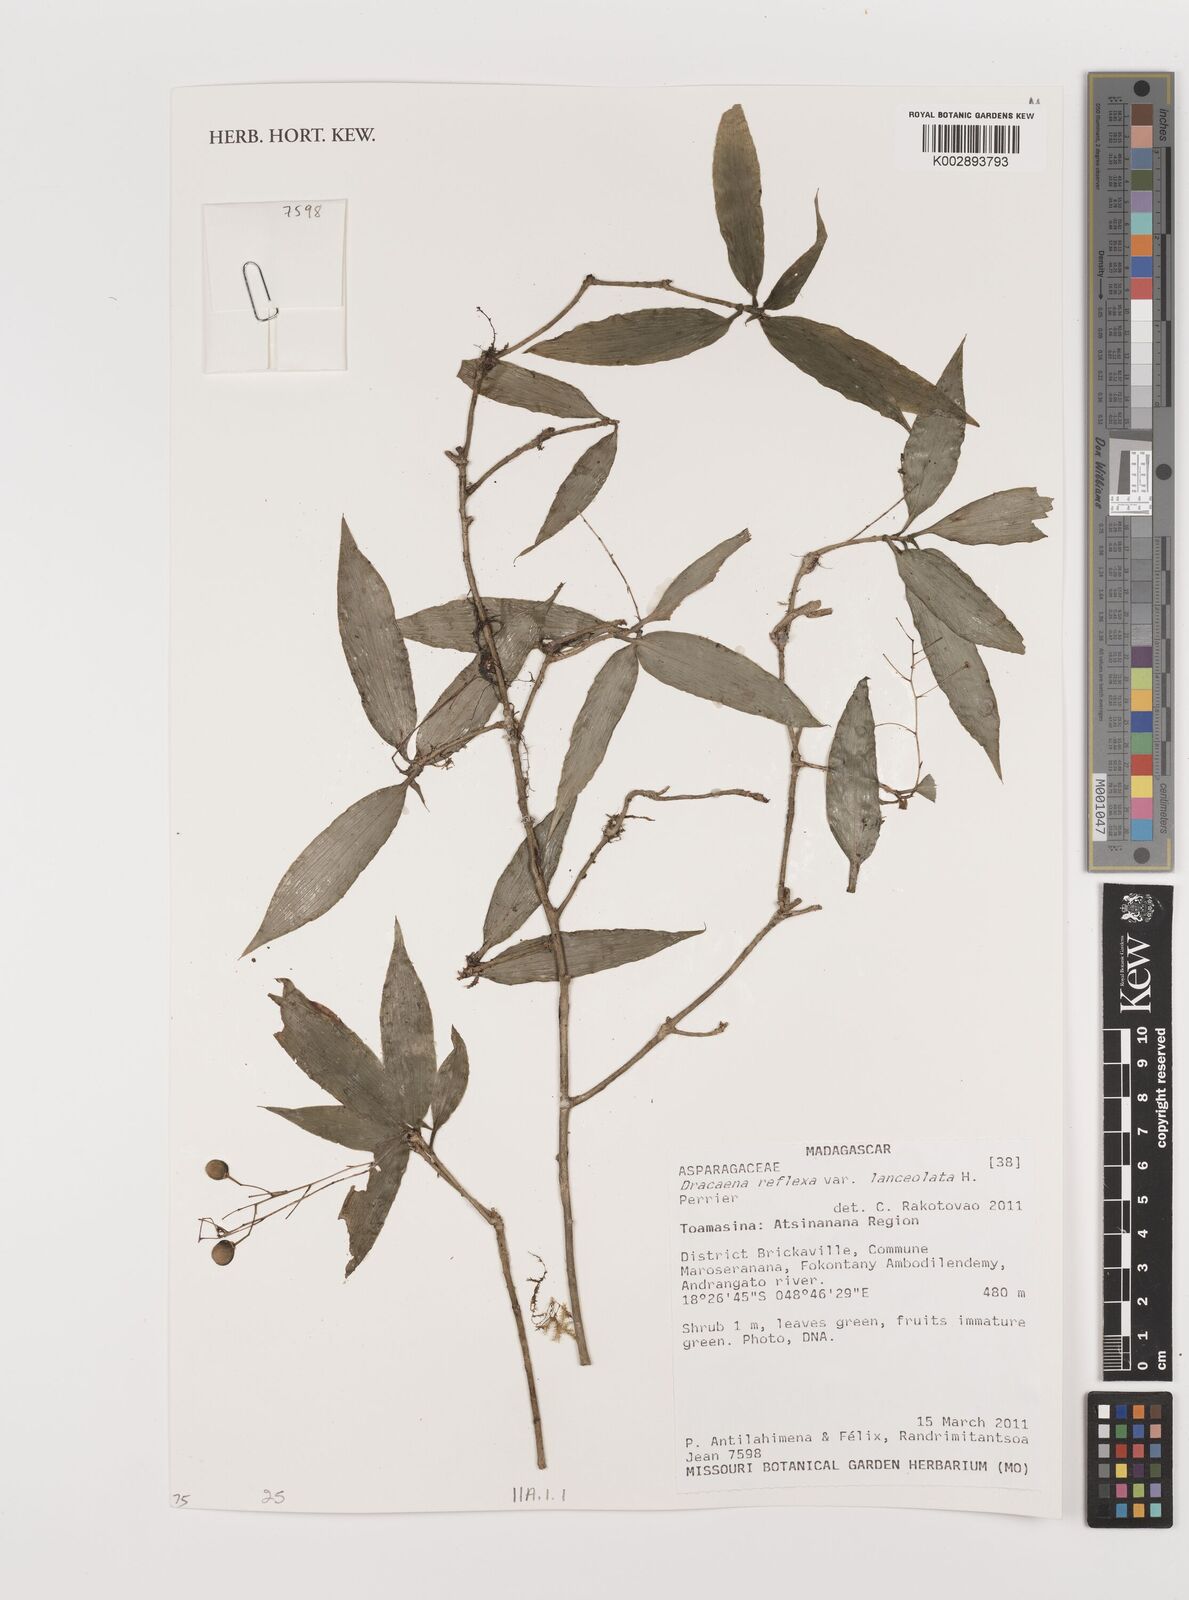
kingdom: Plantae
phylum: Tracheophyta
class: Liliopsida
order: Asparagales
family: Asparagaceae
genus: Dracaena
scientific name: Dracaena reflexa
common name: Song-of-india
